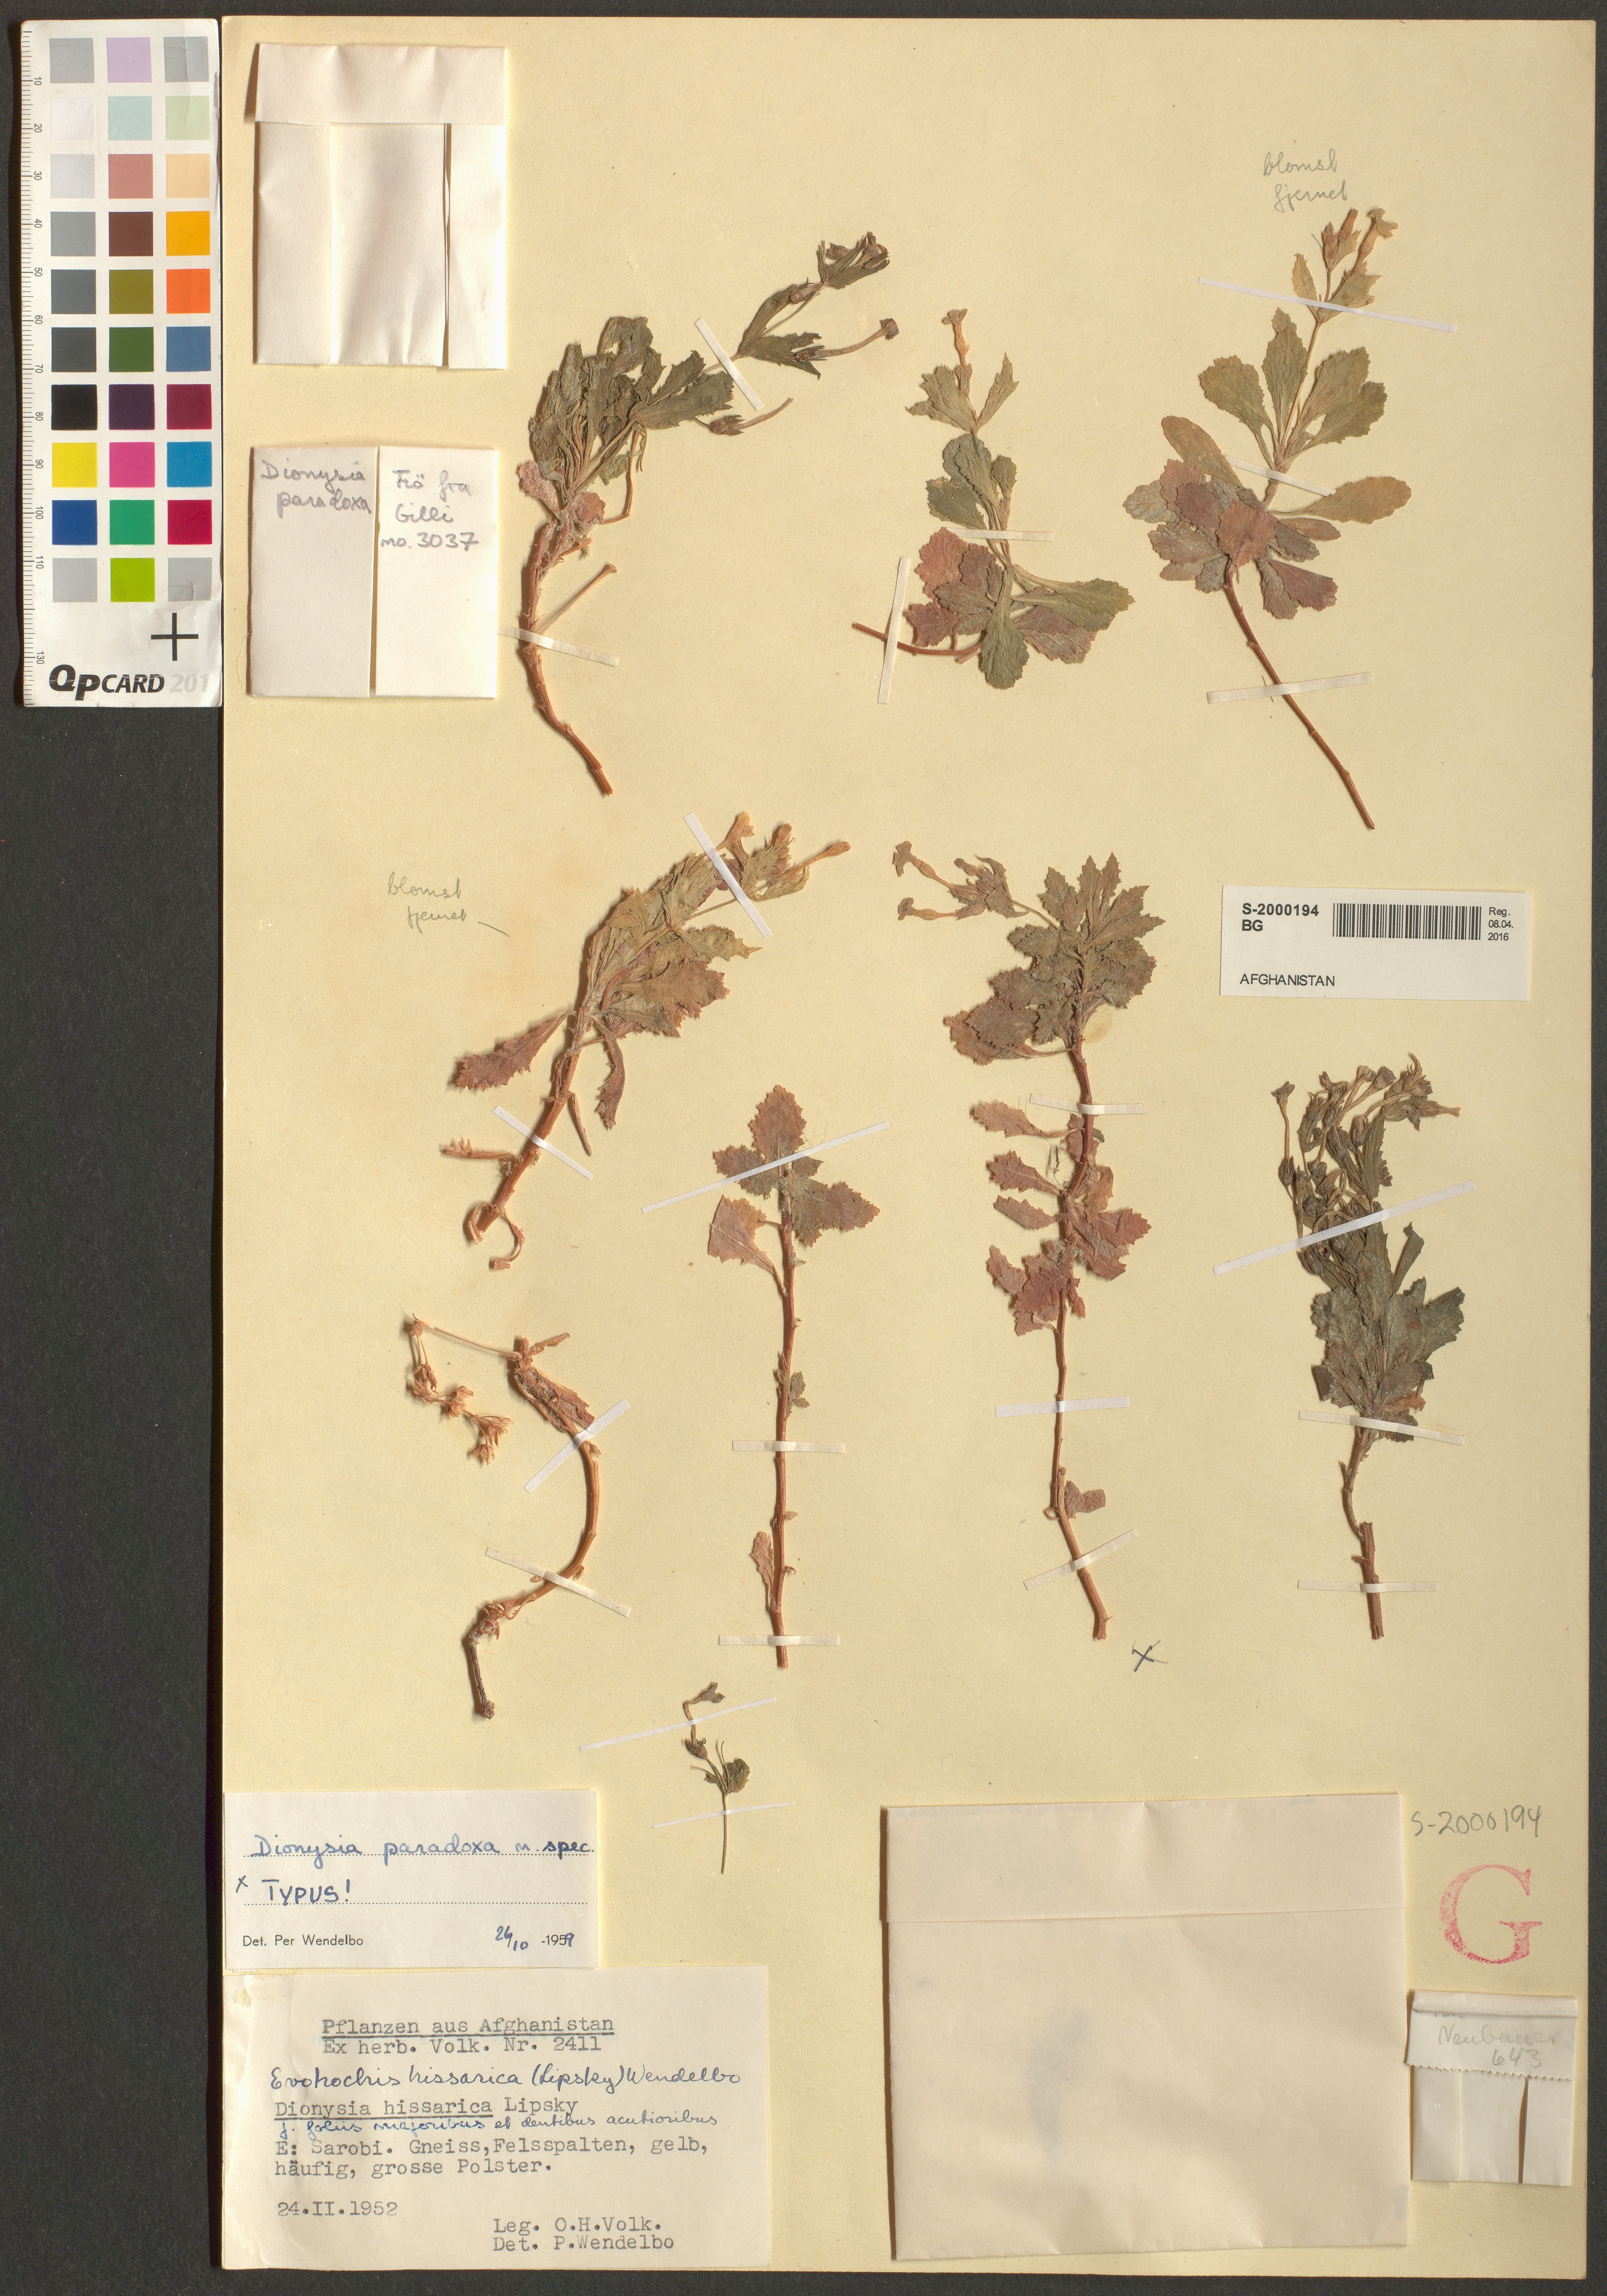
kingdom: Plantae
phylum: Tracheophyta
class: Magnoliopsida
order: Ericales
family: Primulaceae
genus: Dionysia
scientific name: Dionysia paradoxa
